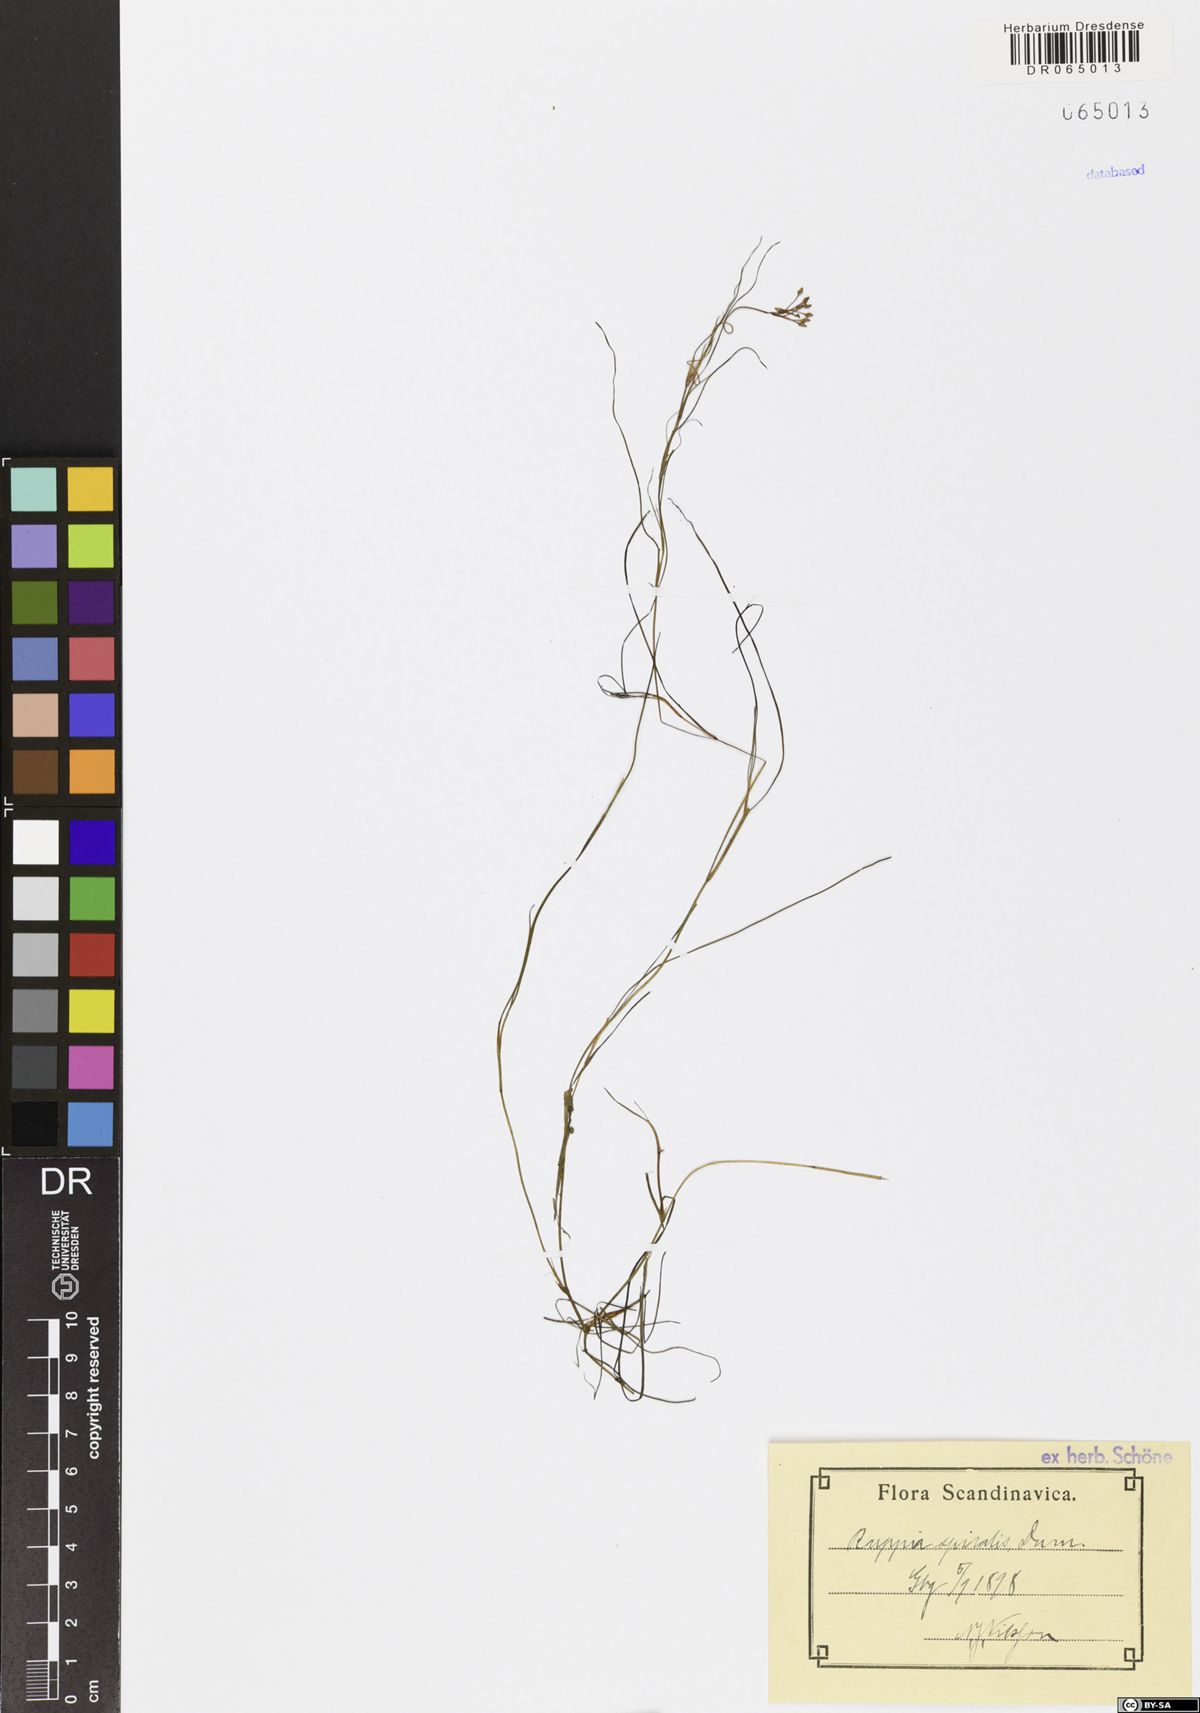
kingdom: Plantae
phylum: Tracheophyta
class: Liliopsida
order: Alismatales
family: Ruppiaceae
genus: Ruppia
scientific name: Ruppia cirrhosa
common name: Spiral tasselweed
